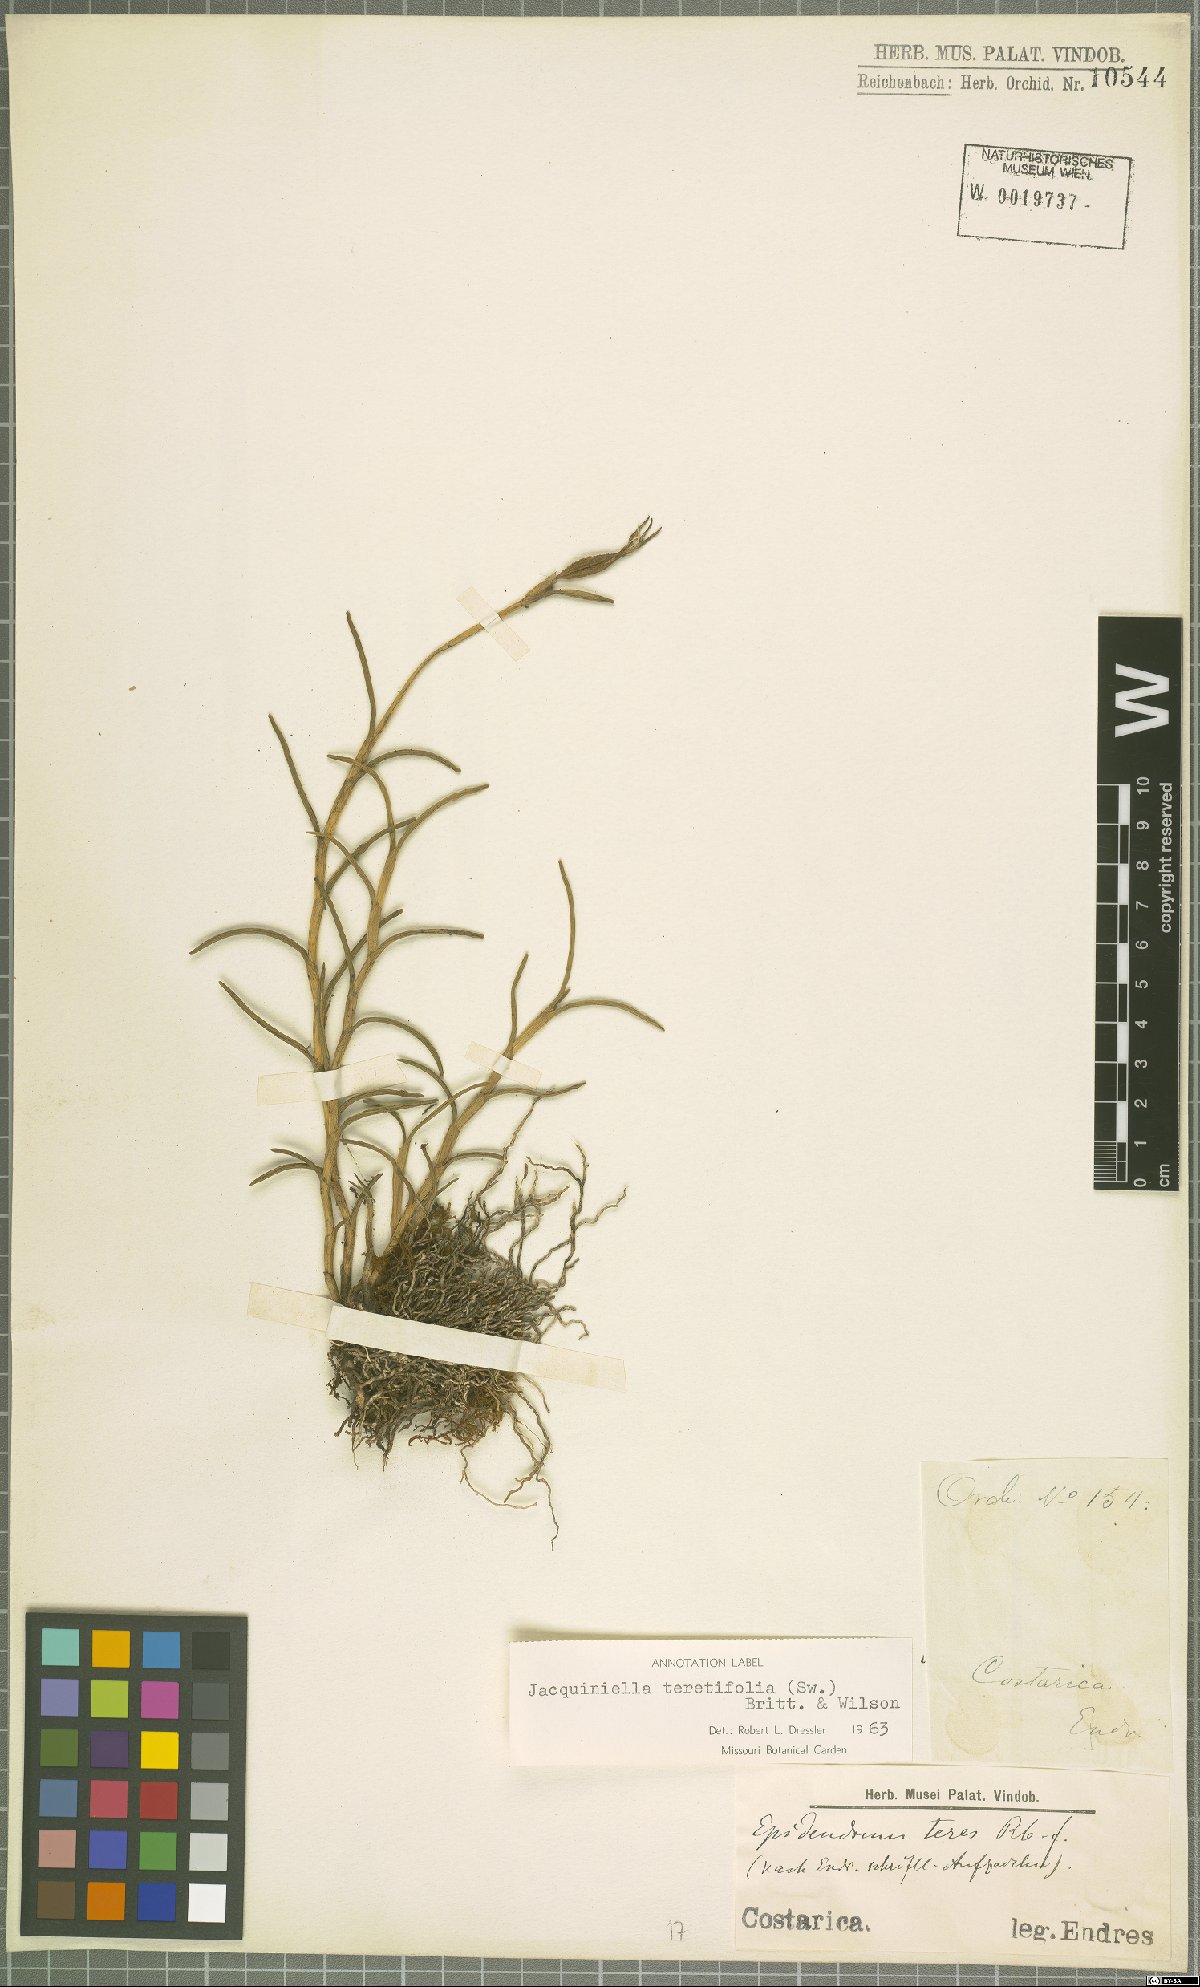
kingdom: Plantae
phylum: Tracheophyta
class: Liliopsida
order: Asparagales
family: Orchidaceae
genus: Jacquiniella
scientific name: Jacquiniella teretifolia
